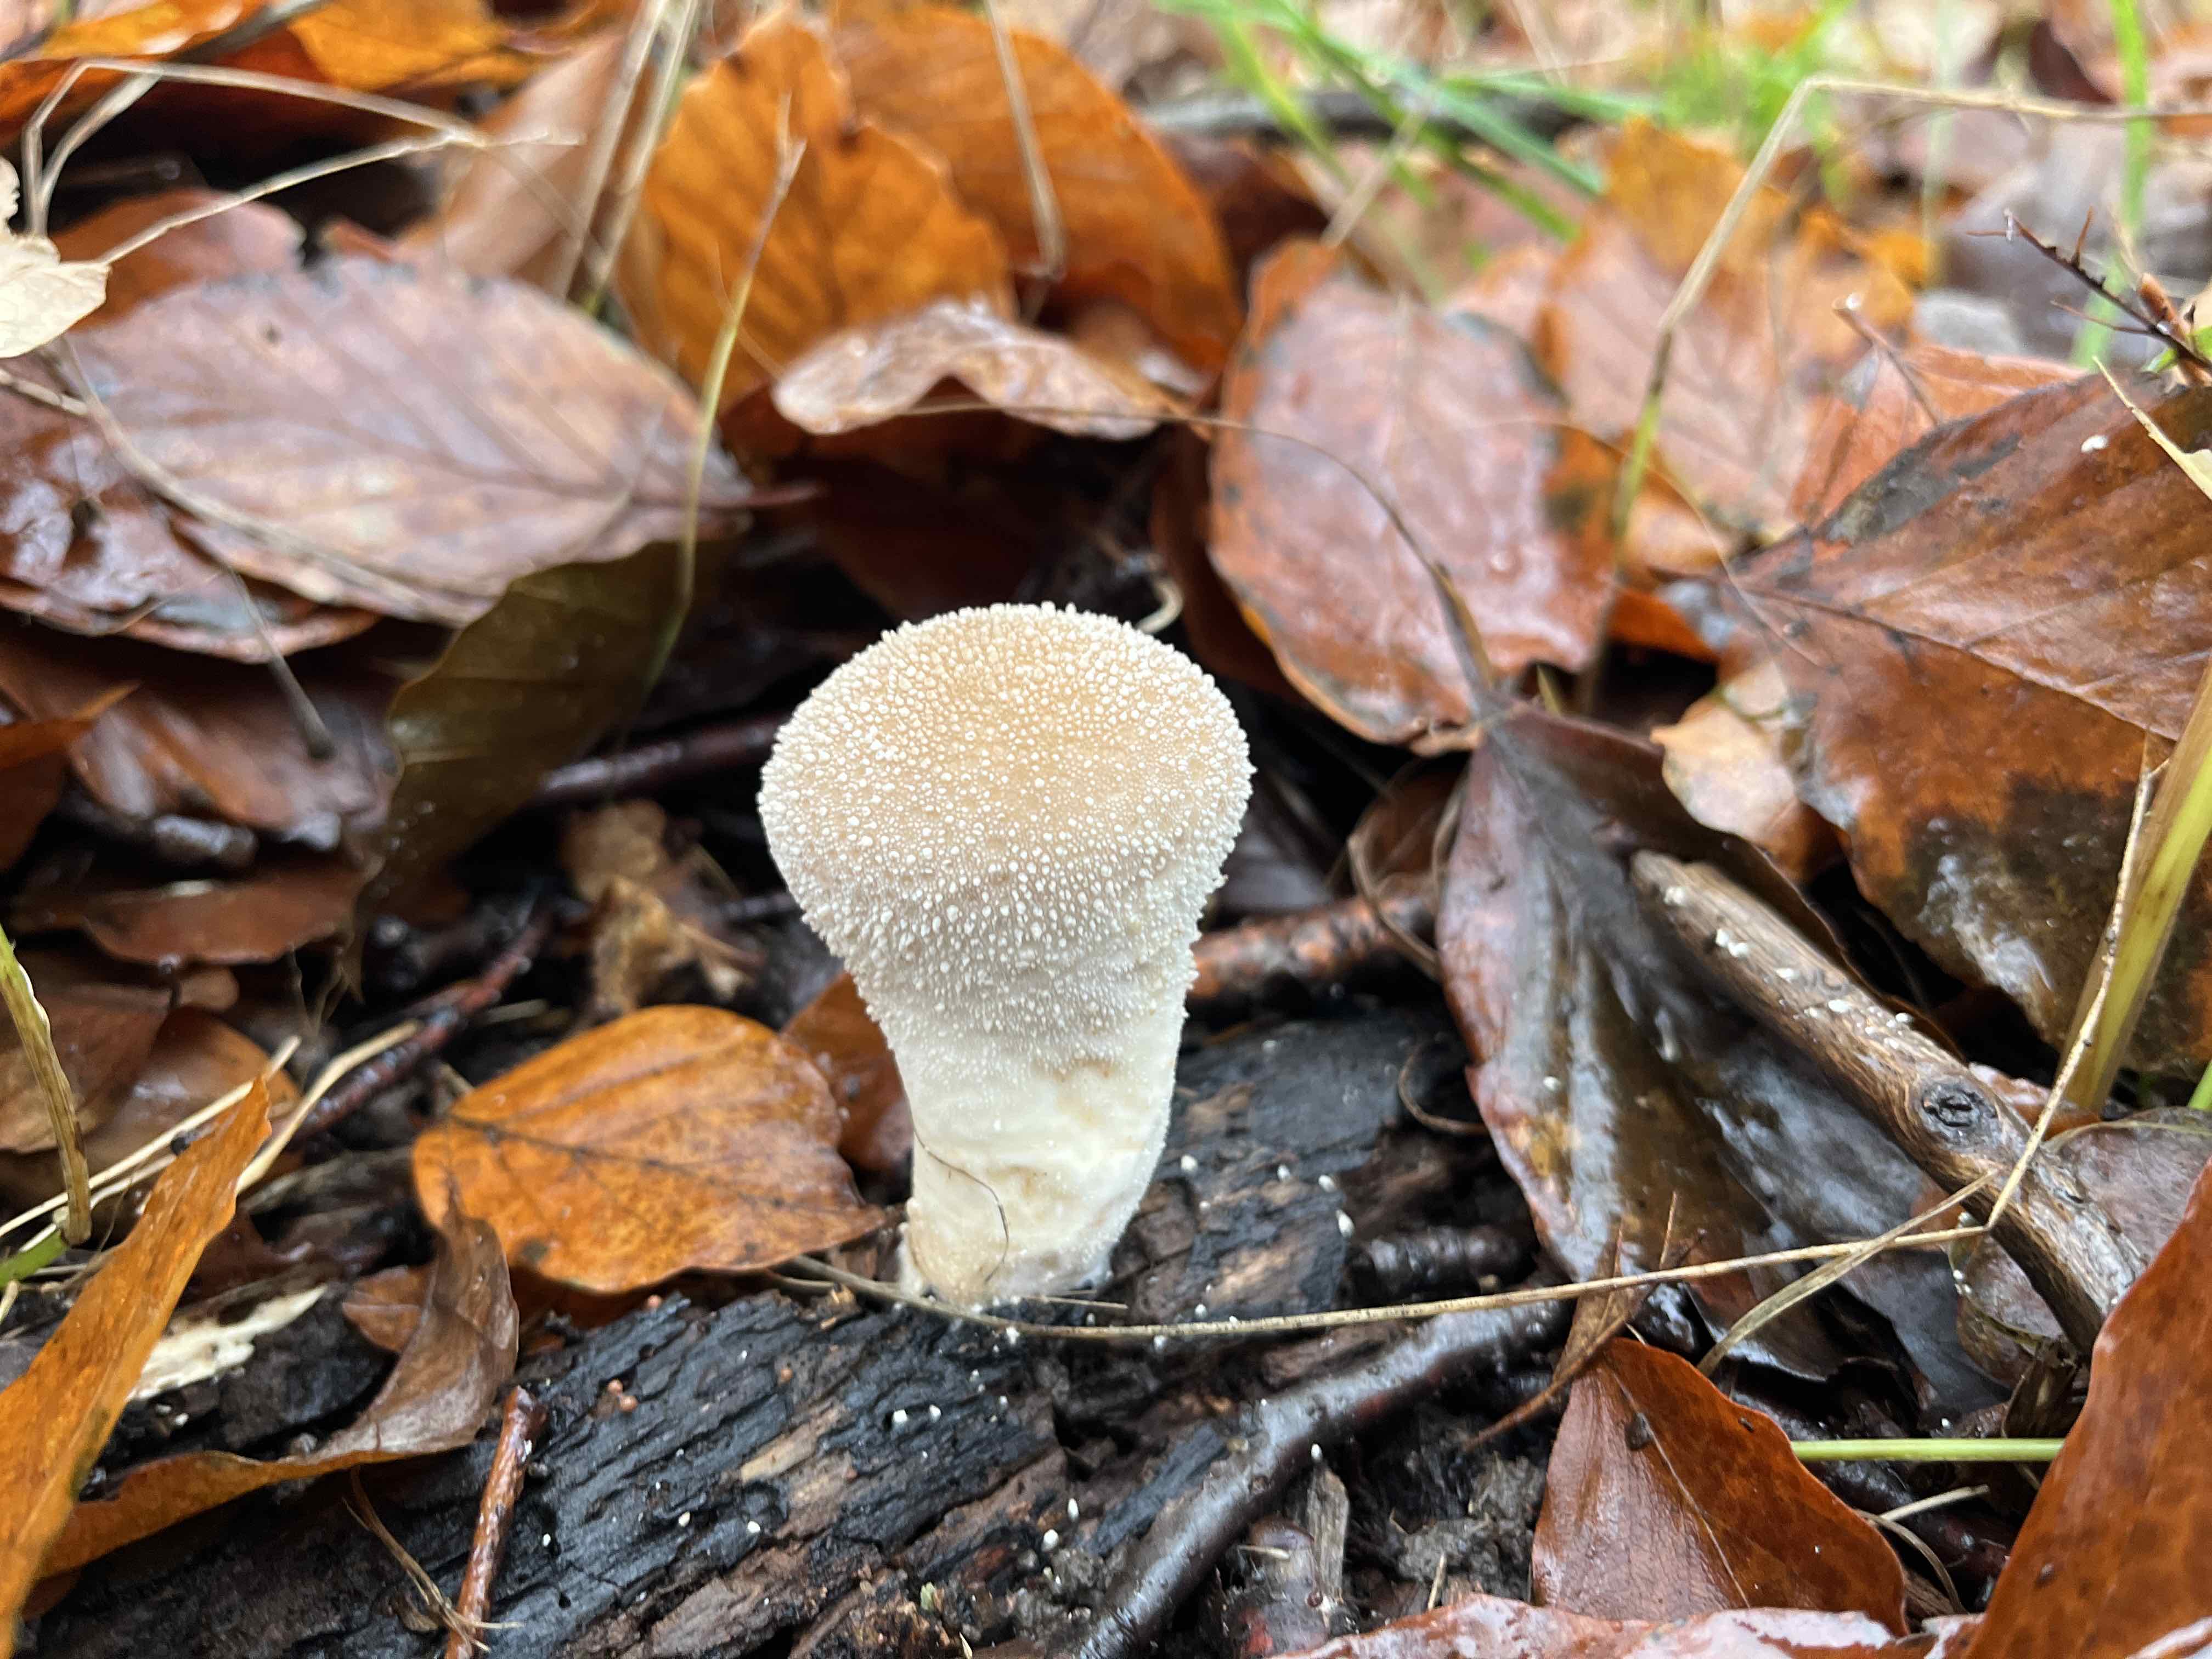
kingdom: Fungi
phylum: Basidiomycota
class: Agaricomycetes
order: Agaricales
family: Lycoperdaceae
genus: Lycoperdon
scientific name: Lycoperdon perlatum
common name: krystal-støvbold
